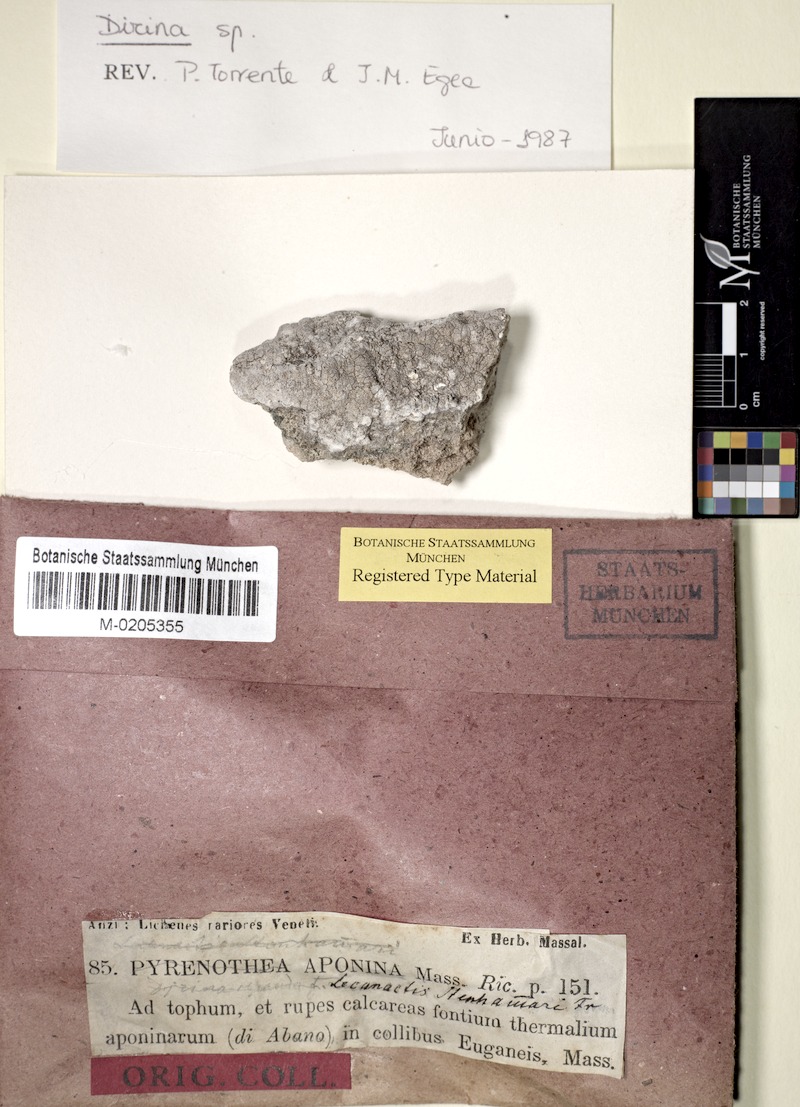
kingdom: Fungi
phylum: Ascomycota
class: Arthoniomycetes
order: Arthoniales
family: Roccellaceae
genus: Dirina
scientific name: Dirina massiliensis
